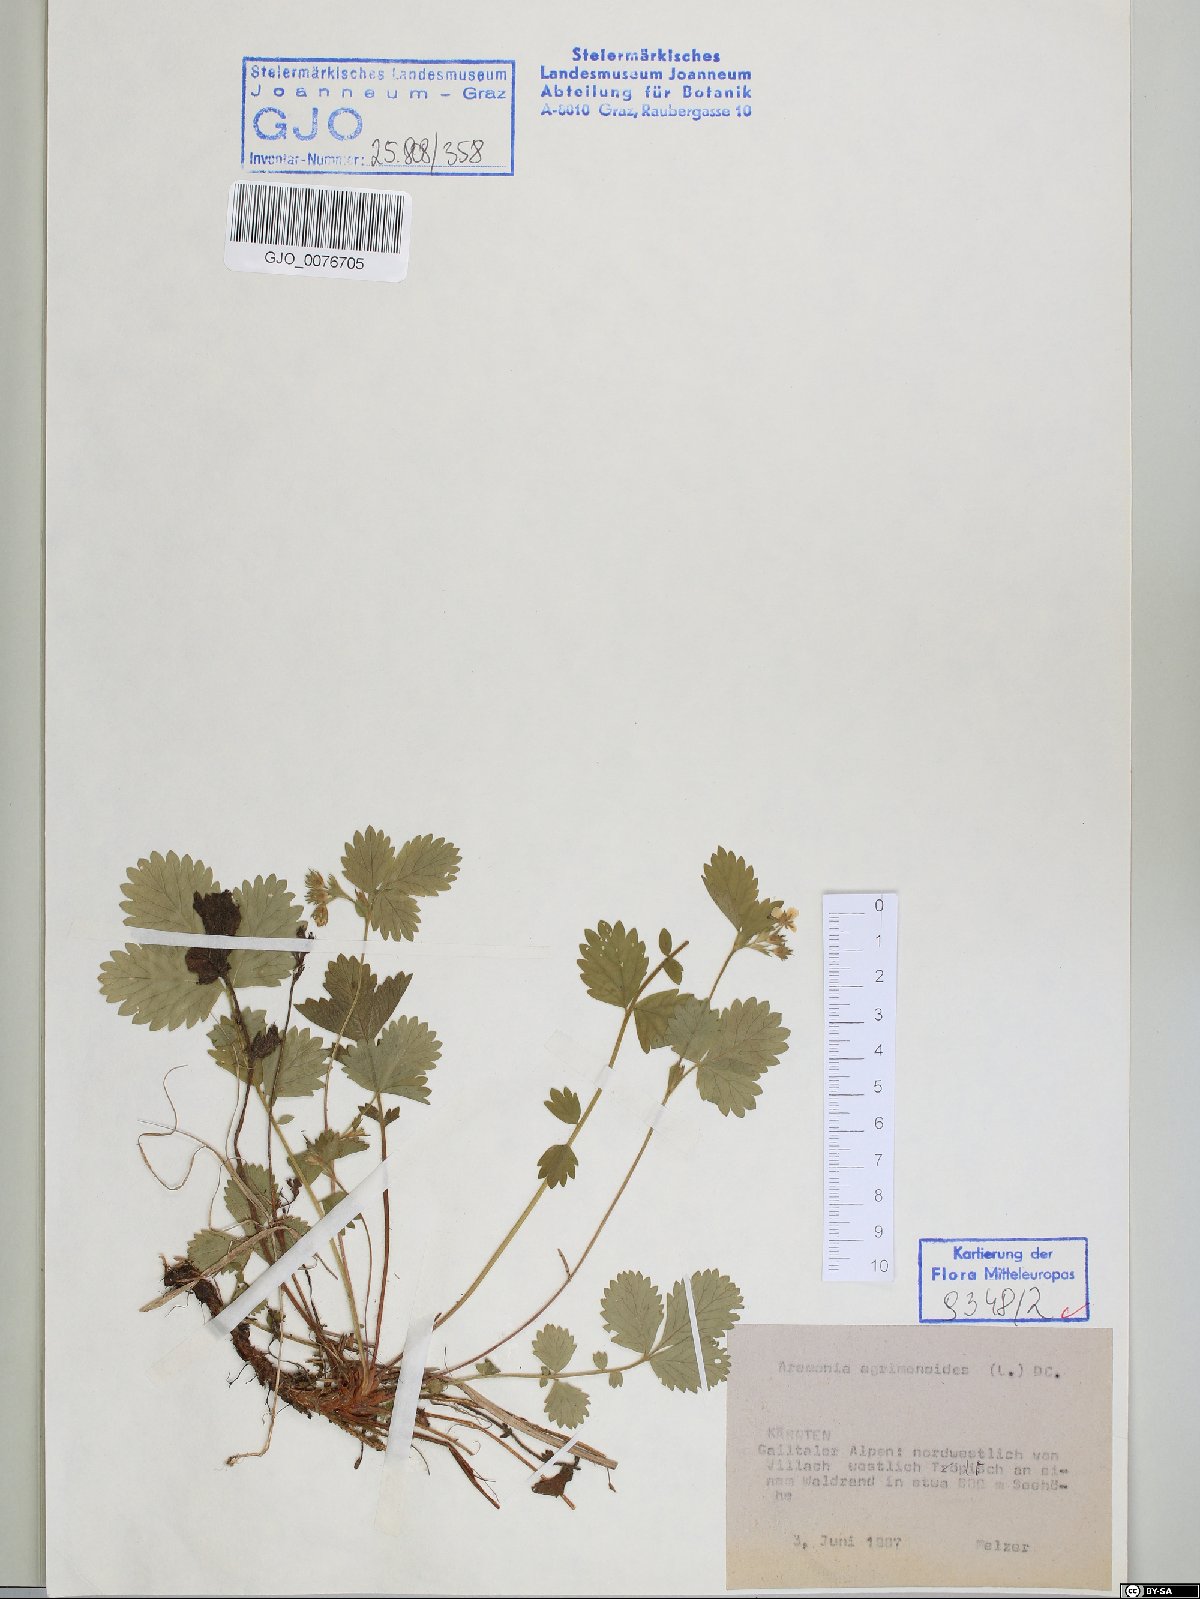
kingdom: Plantae
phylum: Tracheophyta
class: Magnoliopsida
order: Rosales
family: Rosaceae
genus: Aremonia
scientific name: Aremonia agrimonoides
